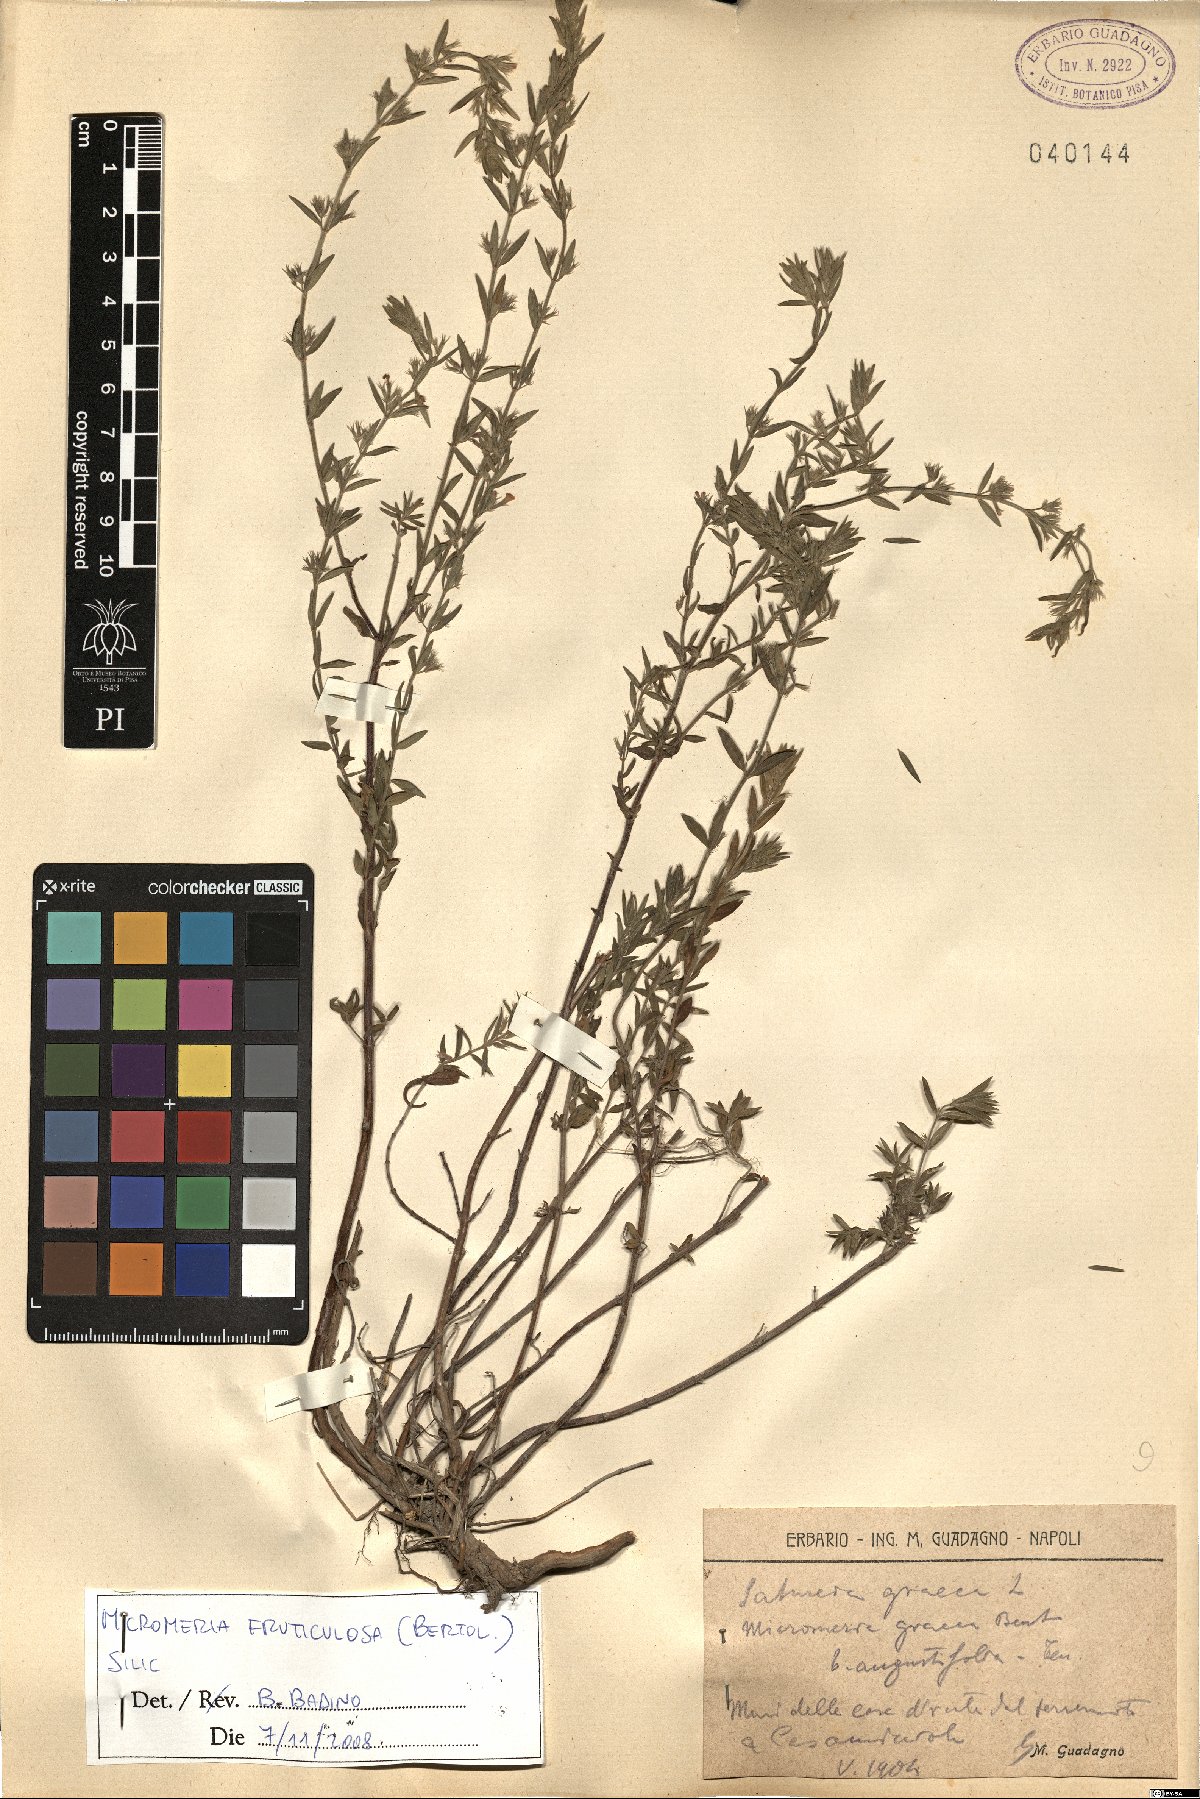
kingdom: Plantae
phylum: Tracheophyta
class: Magnoliopsida
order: Lamiales
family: Lamiaceae
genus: Clinopodium
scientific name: Clinopodium serpyllifolium
